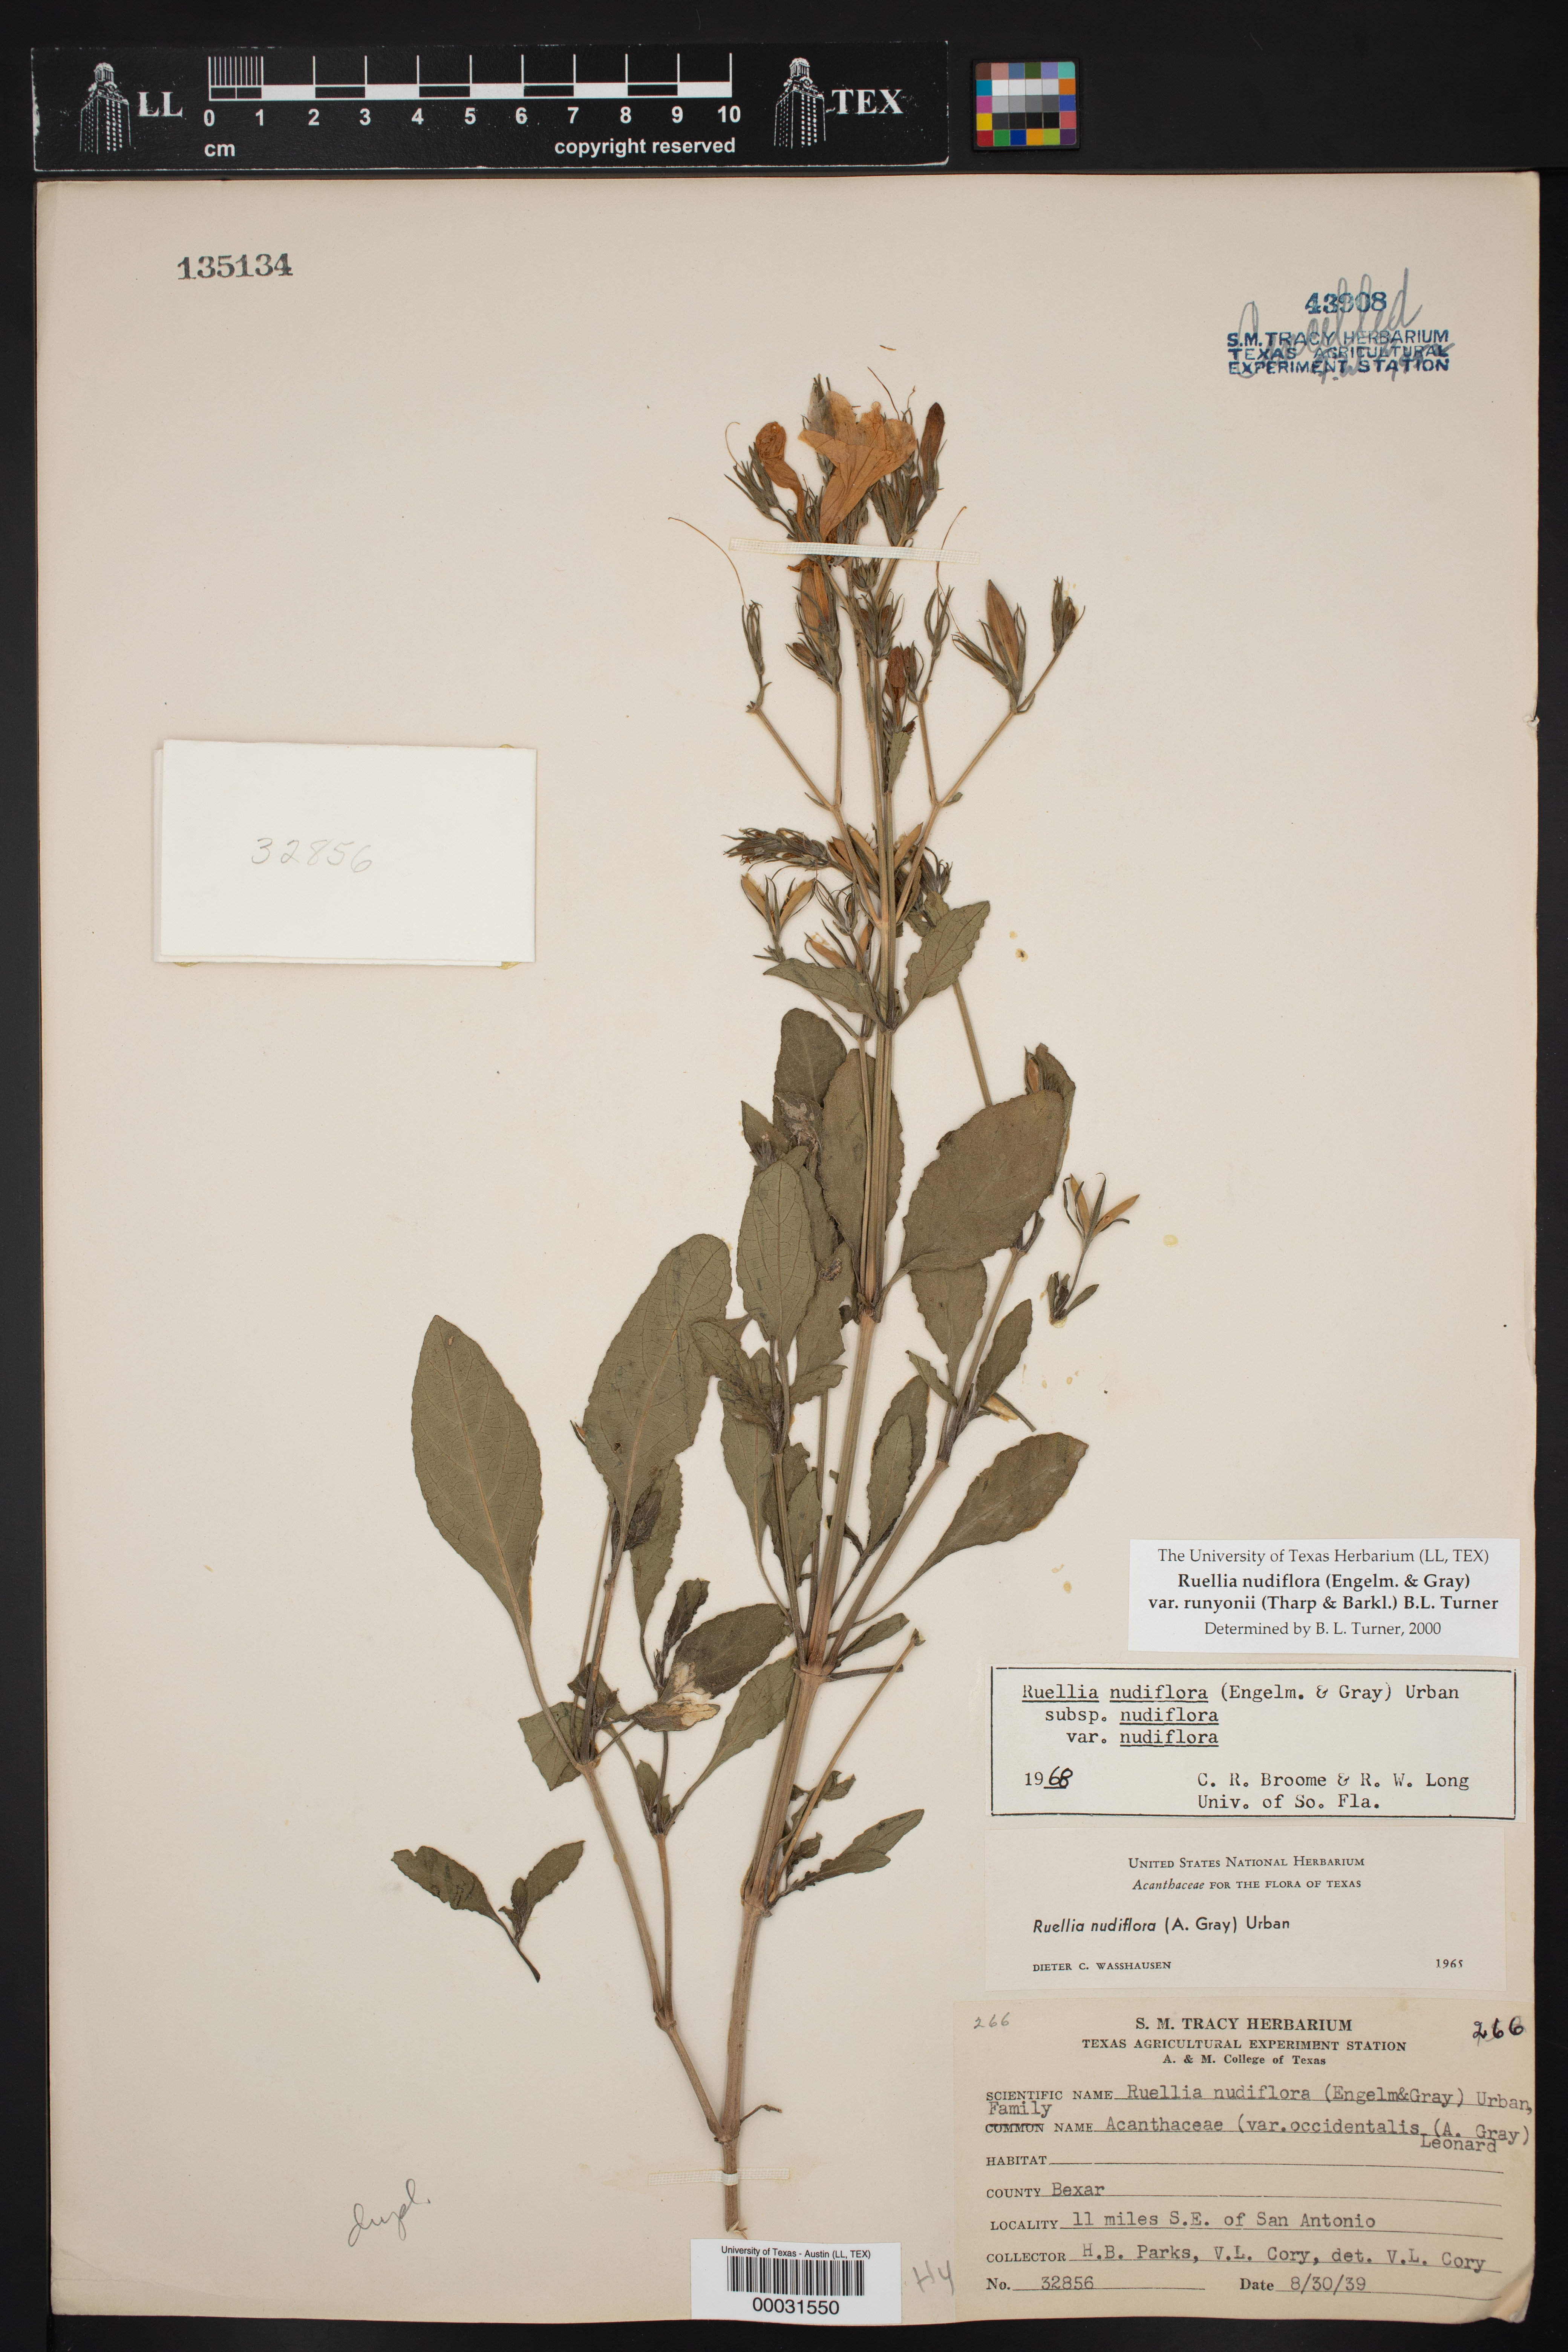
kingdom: Plantae
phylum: Tracheophyta
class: Magnoliopsida
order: Lamiales
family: Acanthaceae
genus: Ruellia
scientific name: Ruellia ciliatiflora
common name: Hairyflower wild petunia
